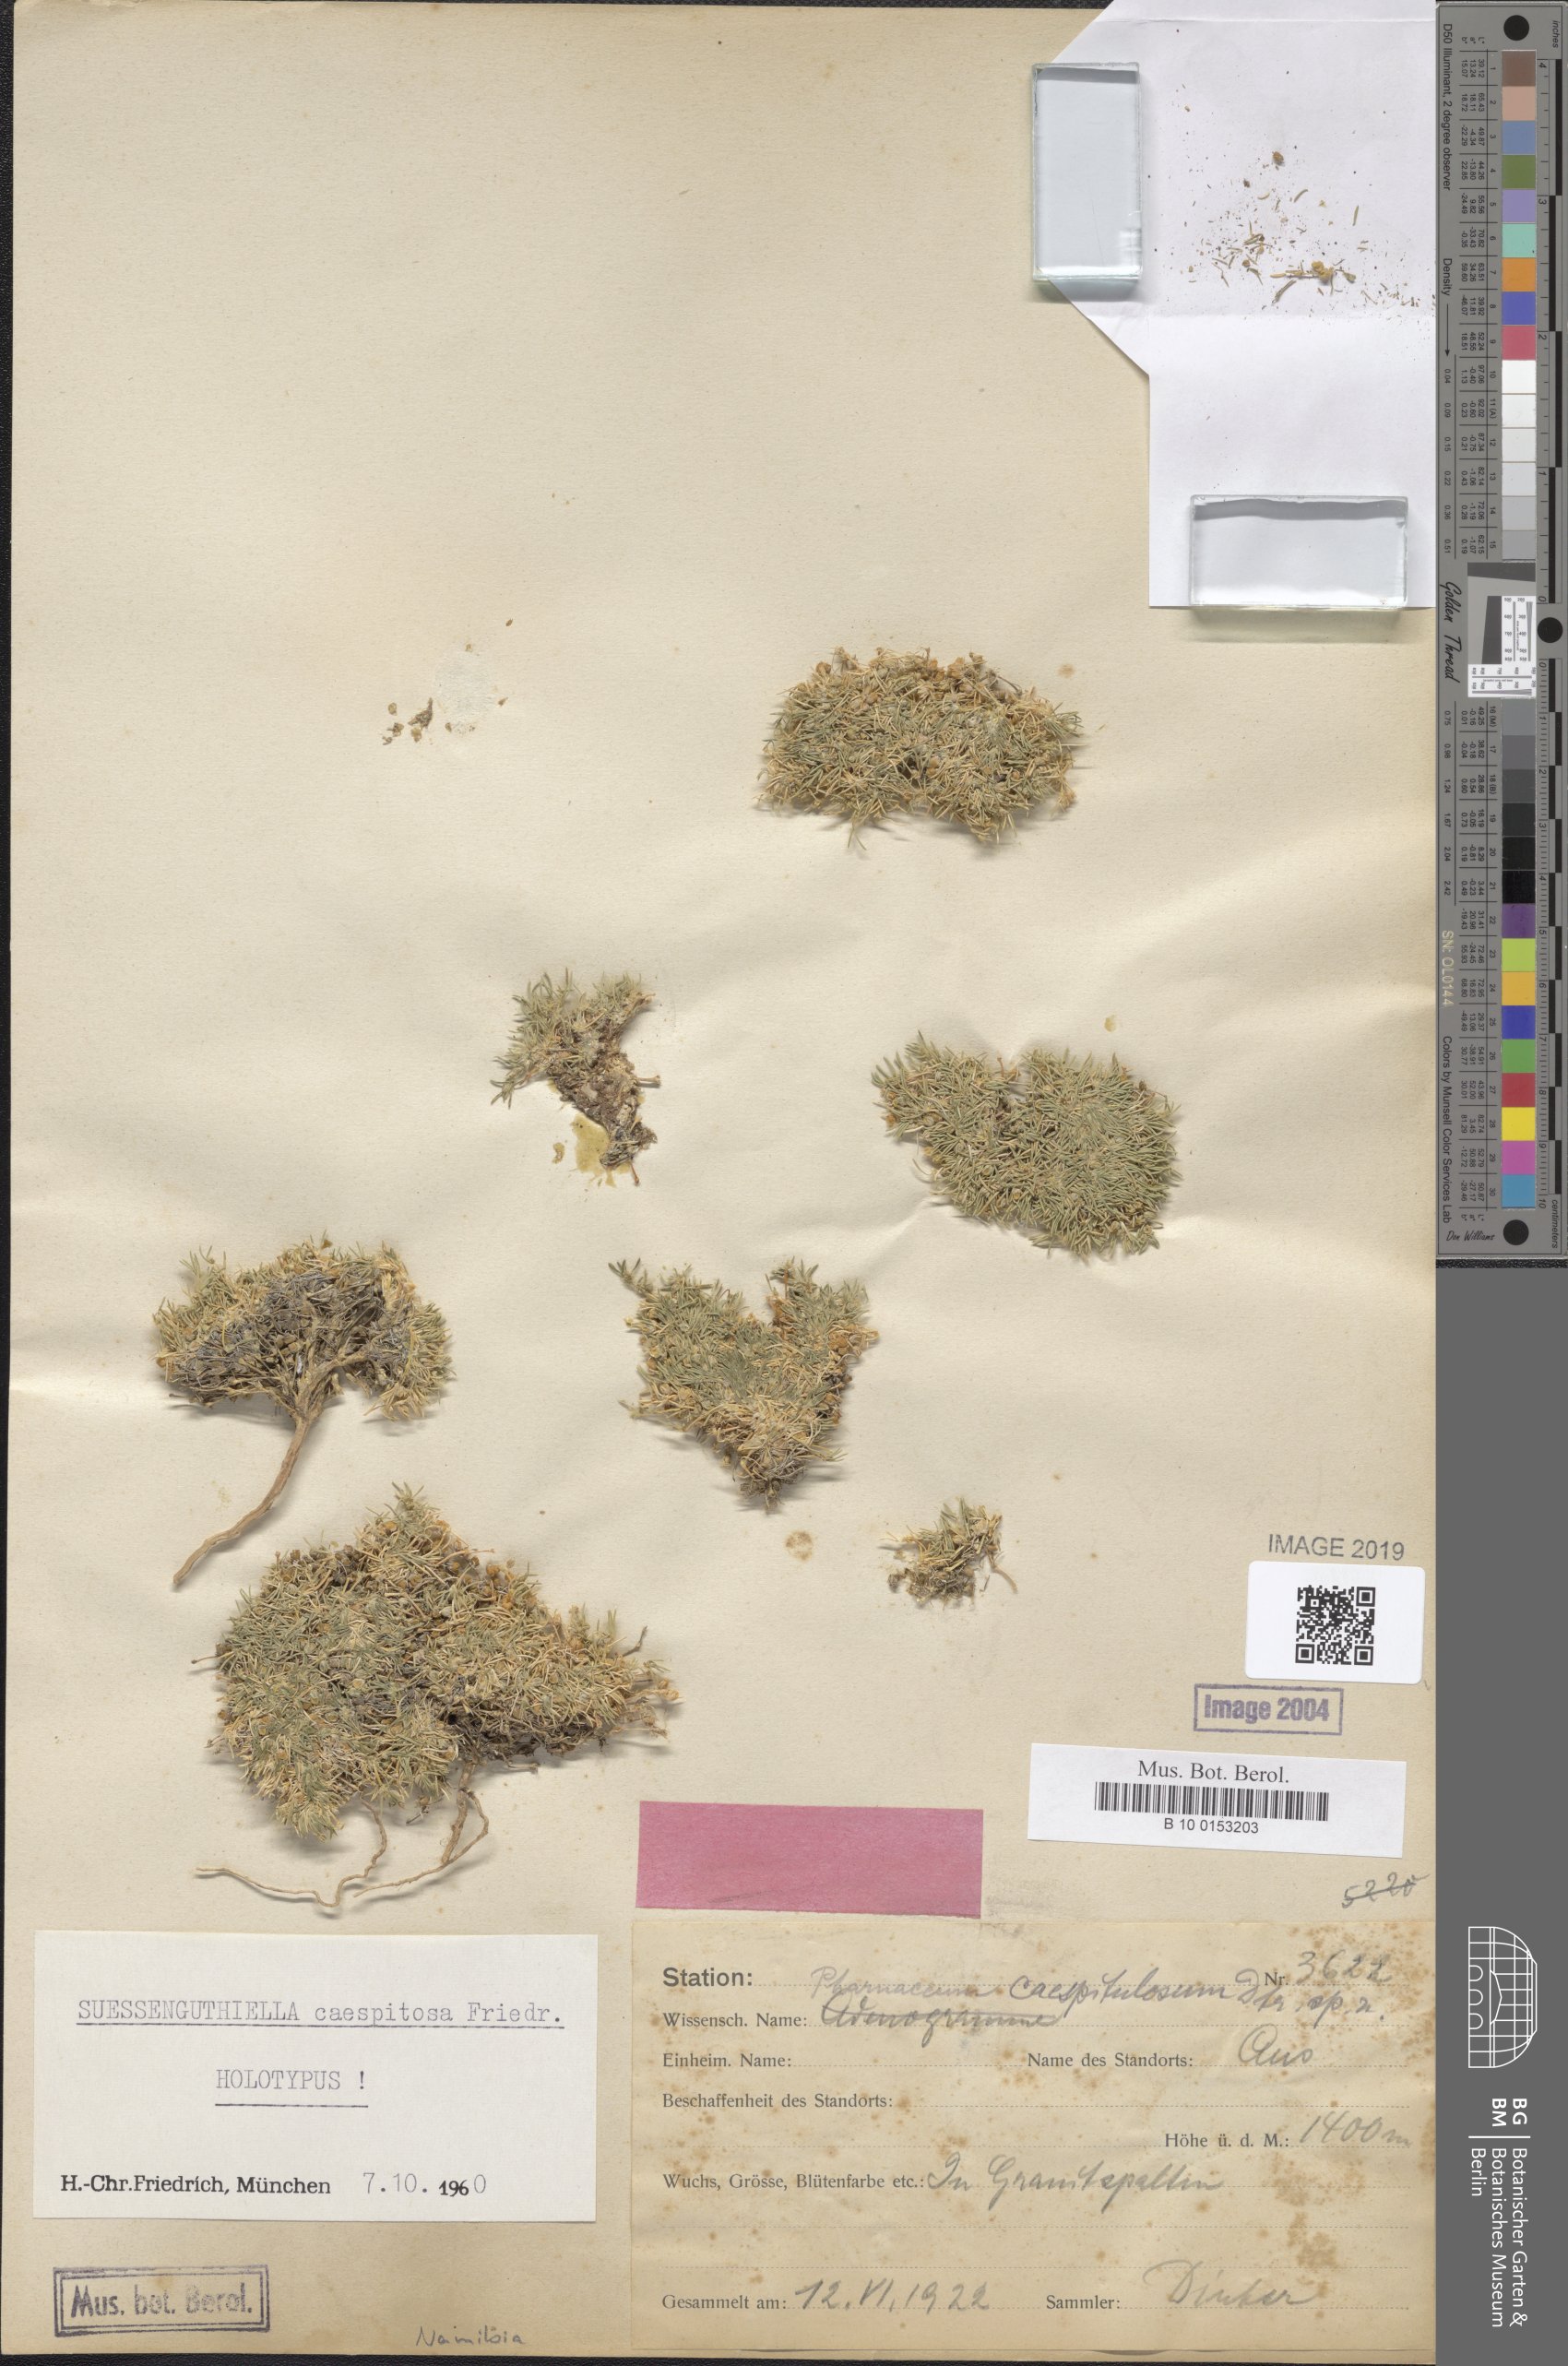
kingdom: Plantae
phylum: Tracheophyta
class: Magnoliopsida
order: Caryophyllales
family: Molluginaceae
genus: Suessenguthiella
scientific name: Suessenguthiella scleranthoides
